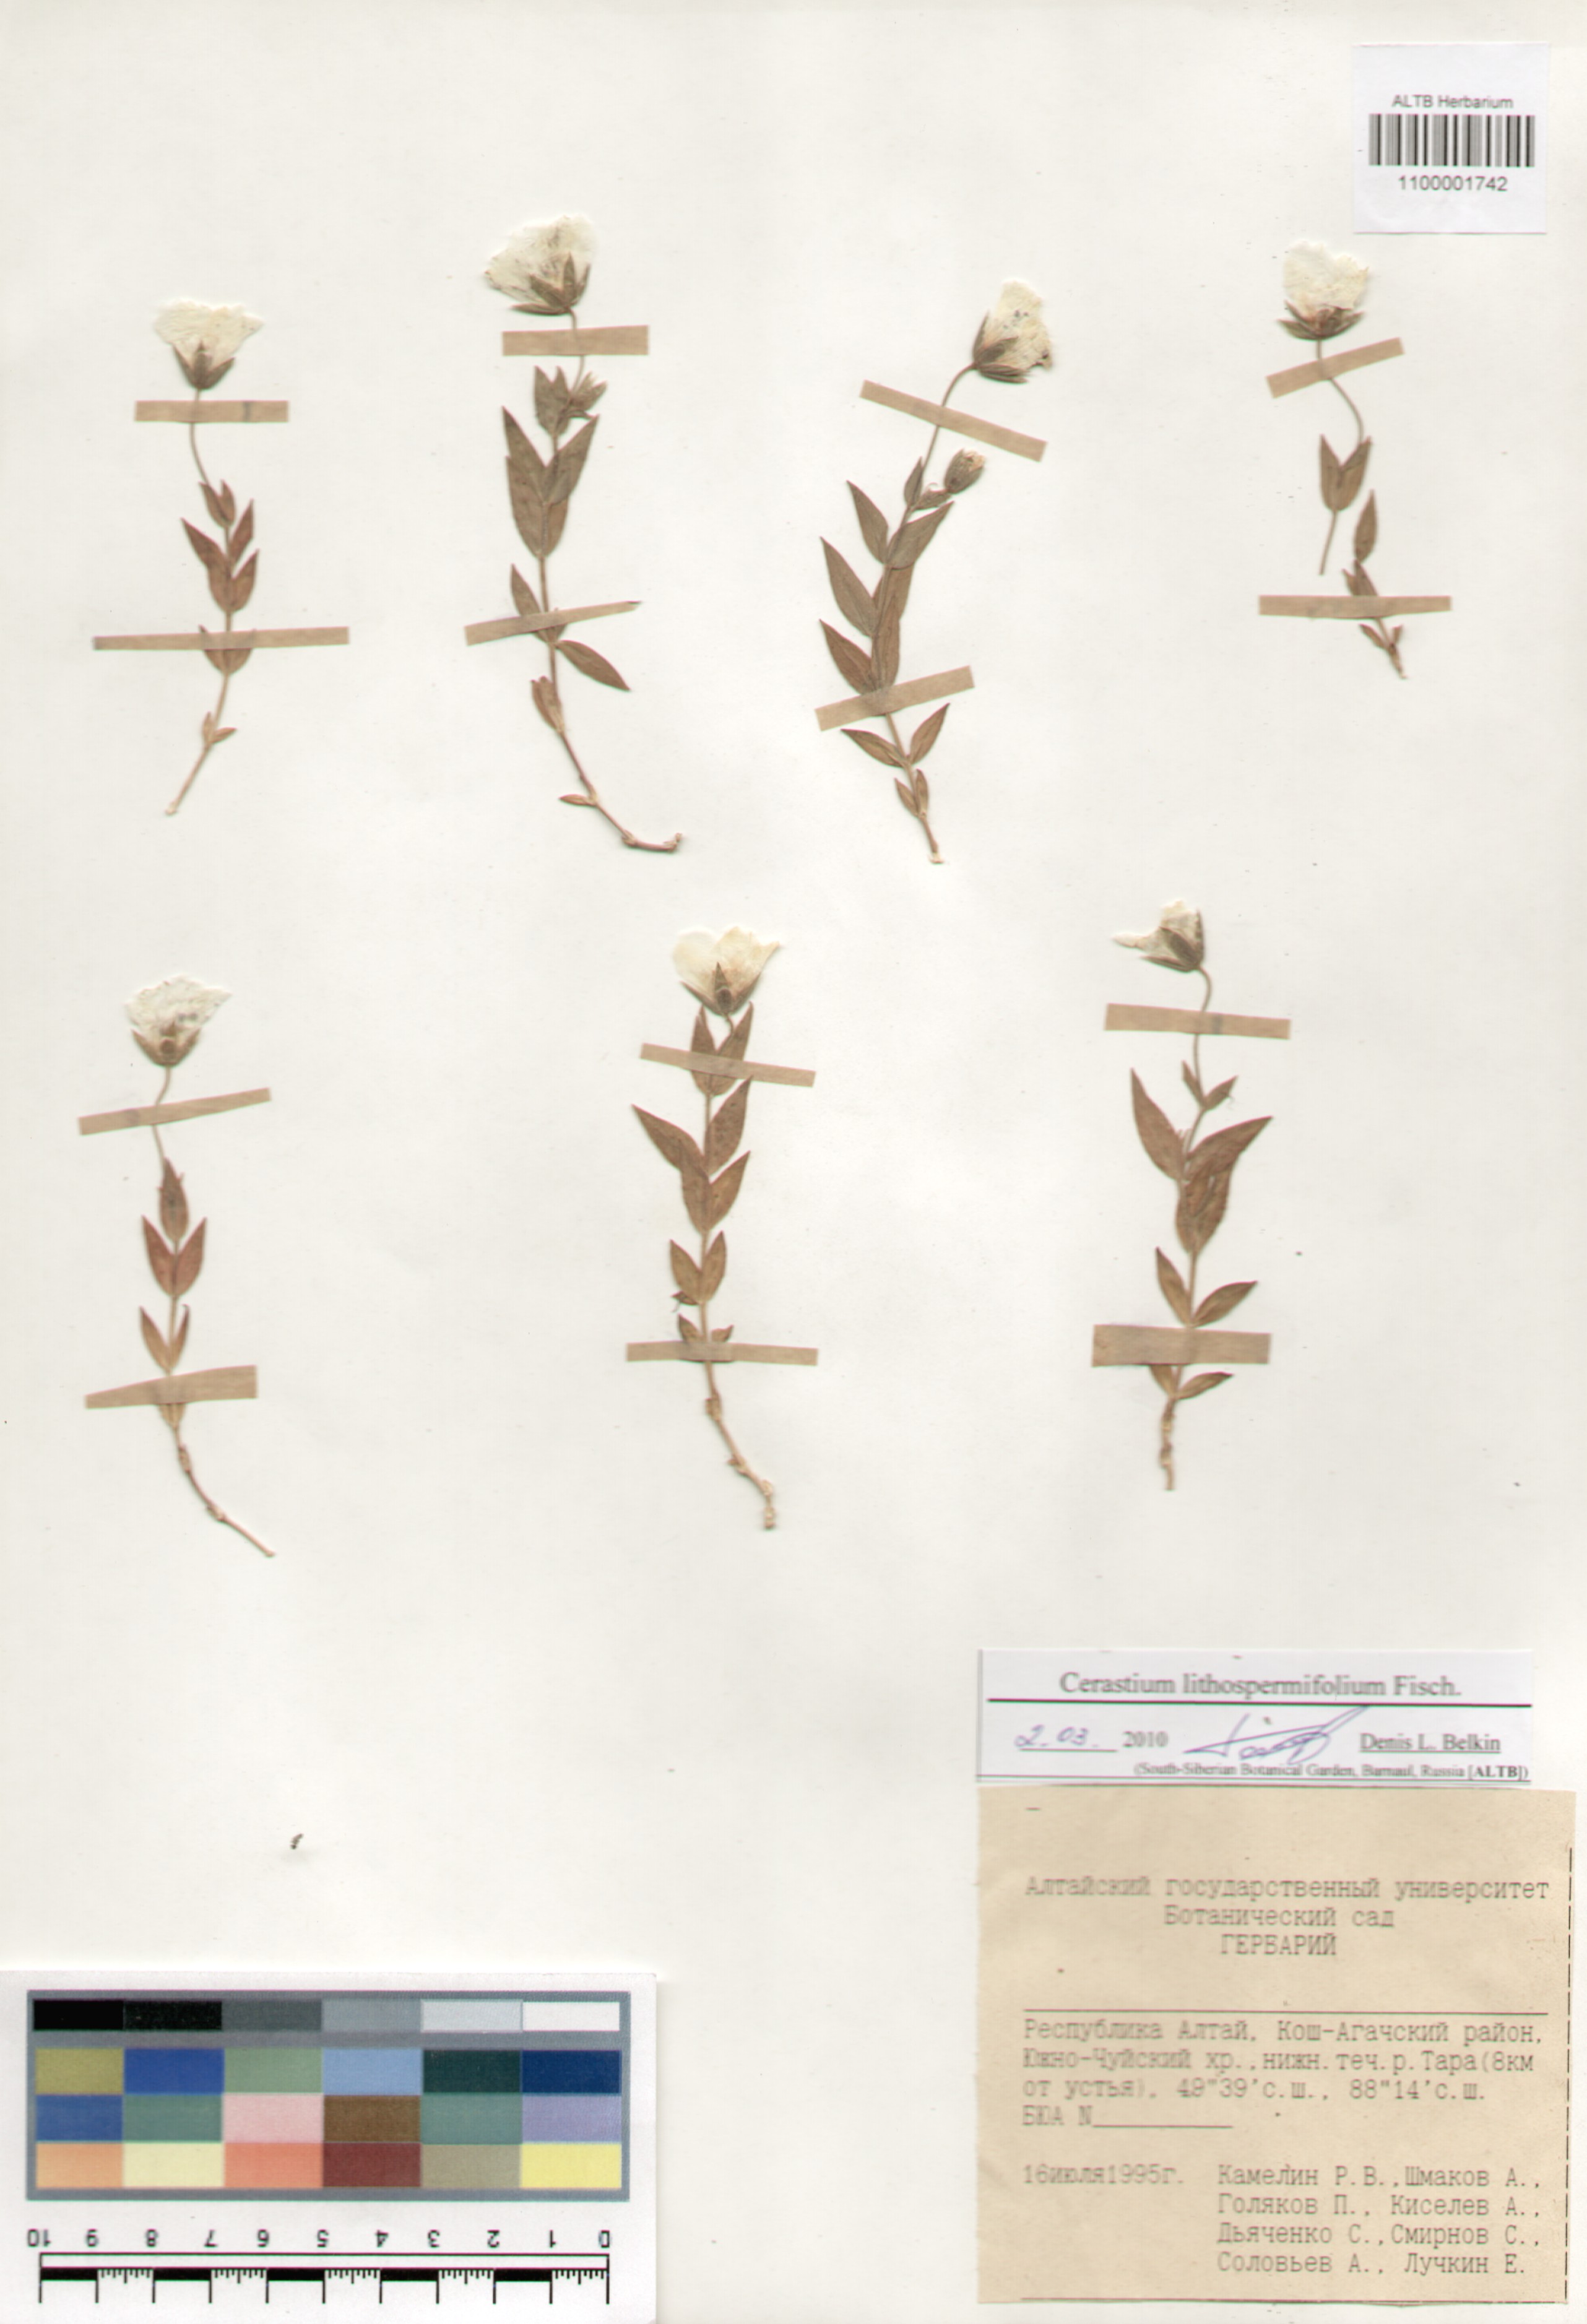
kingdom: Plantae
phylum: Tracheophyta
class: Magnoliopsida
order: Caryophyllales
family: Caryophyllaceae
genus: Cerastium
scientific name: Cerastium lithospermifolium
